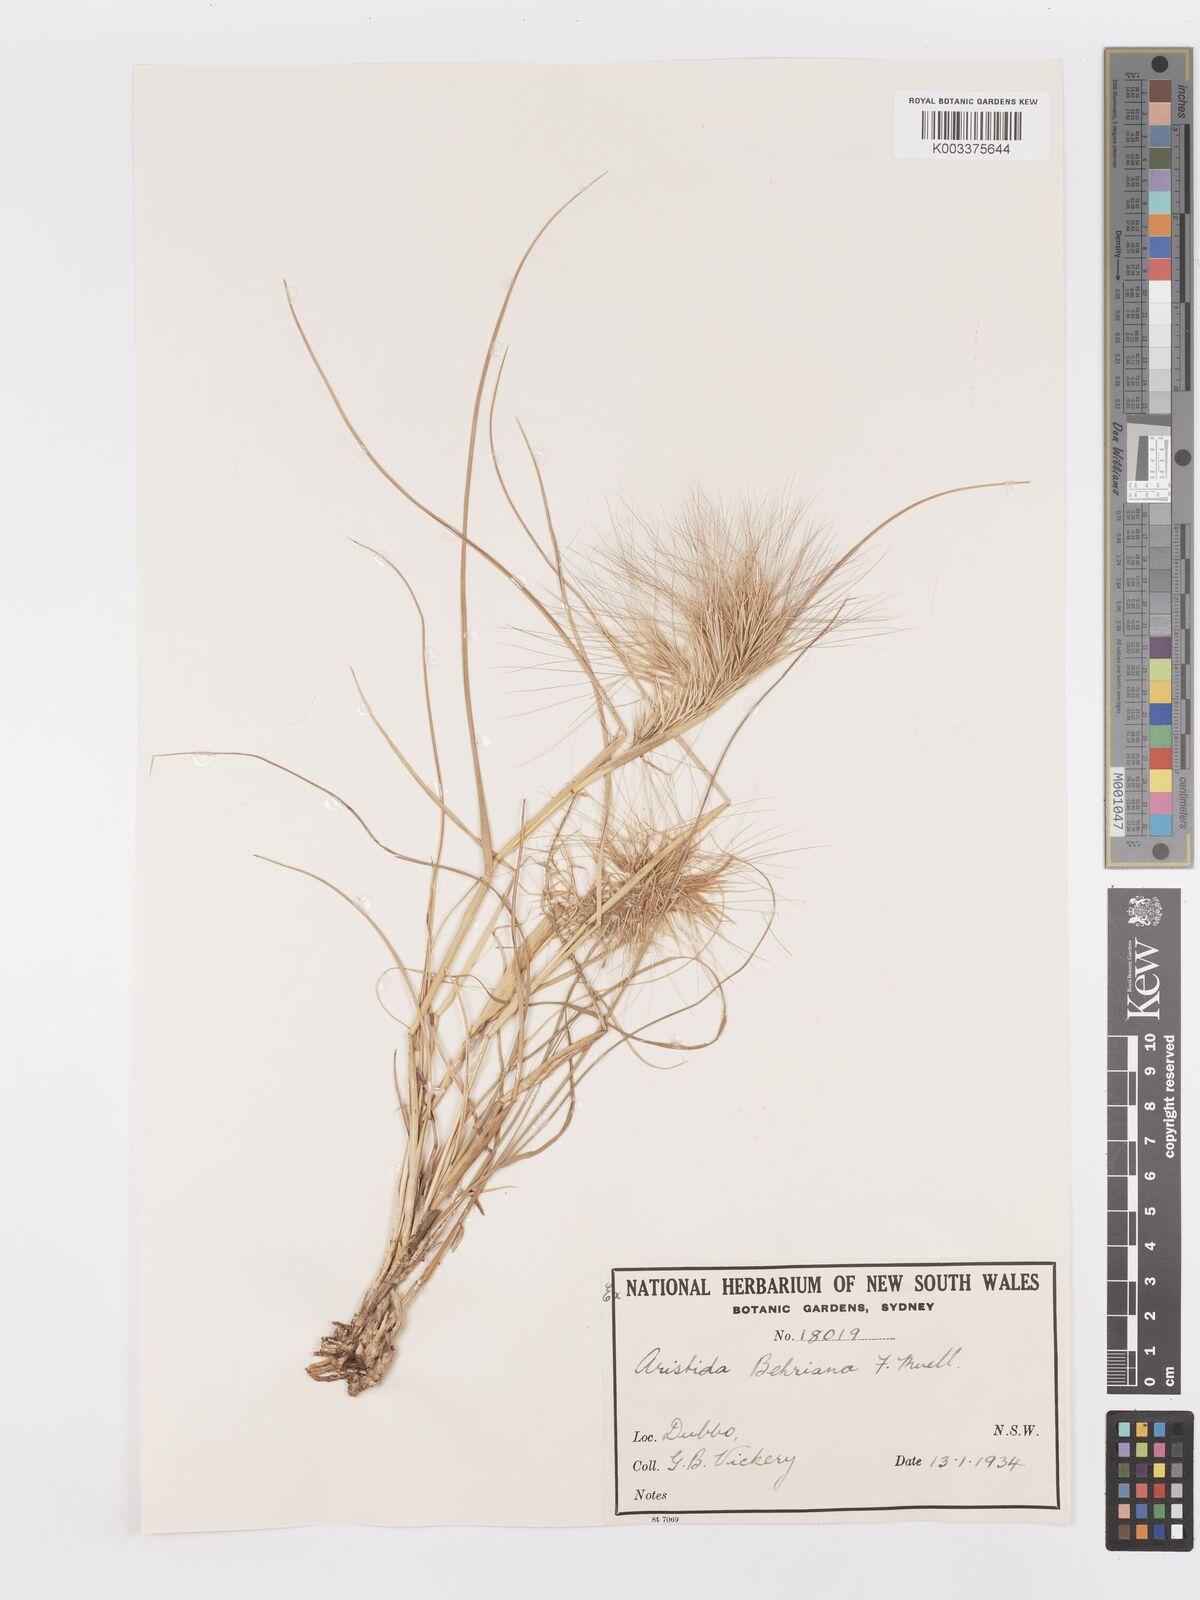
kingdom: Plantae
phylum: Tracheophyta
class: Liliopsida
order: Poales
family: Poaceae
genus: Aristida
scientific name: Aristida behriana
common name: Long-awn wire grass
